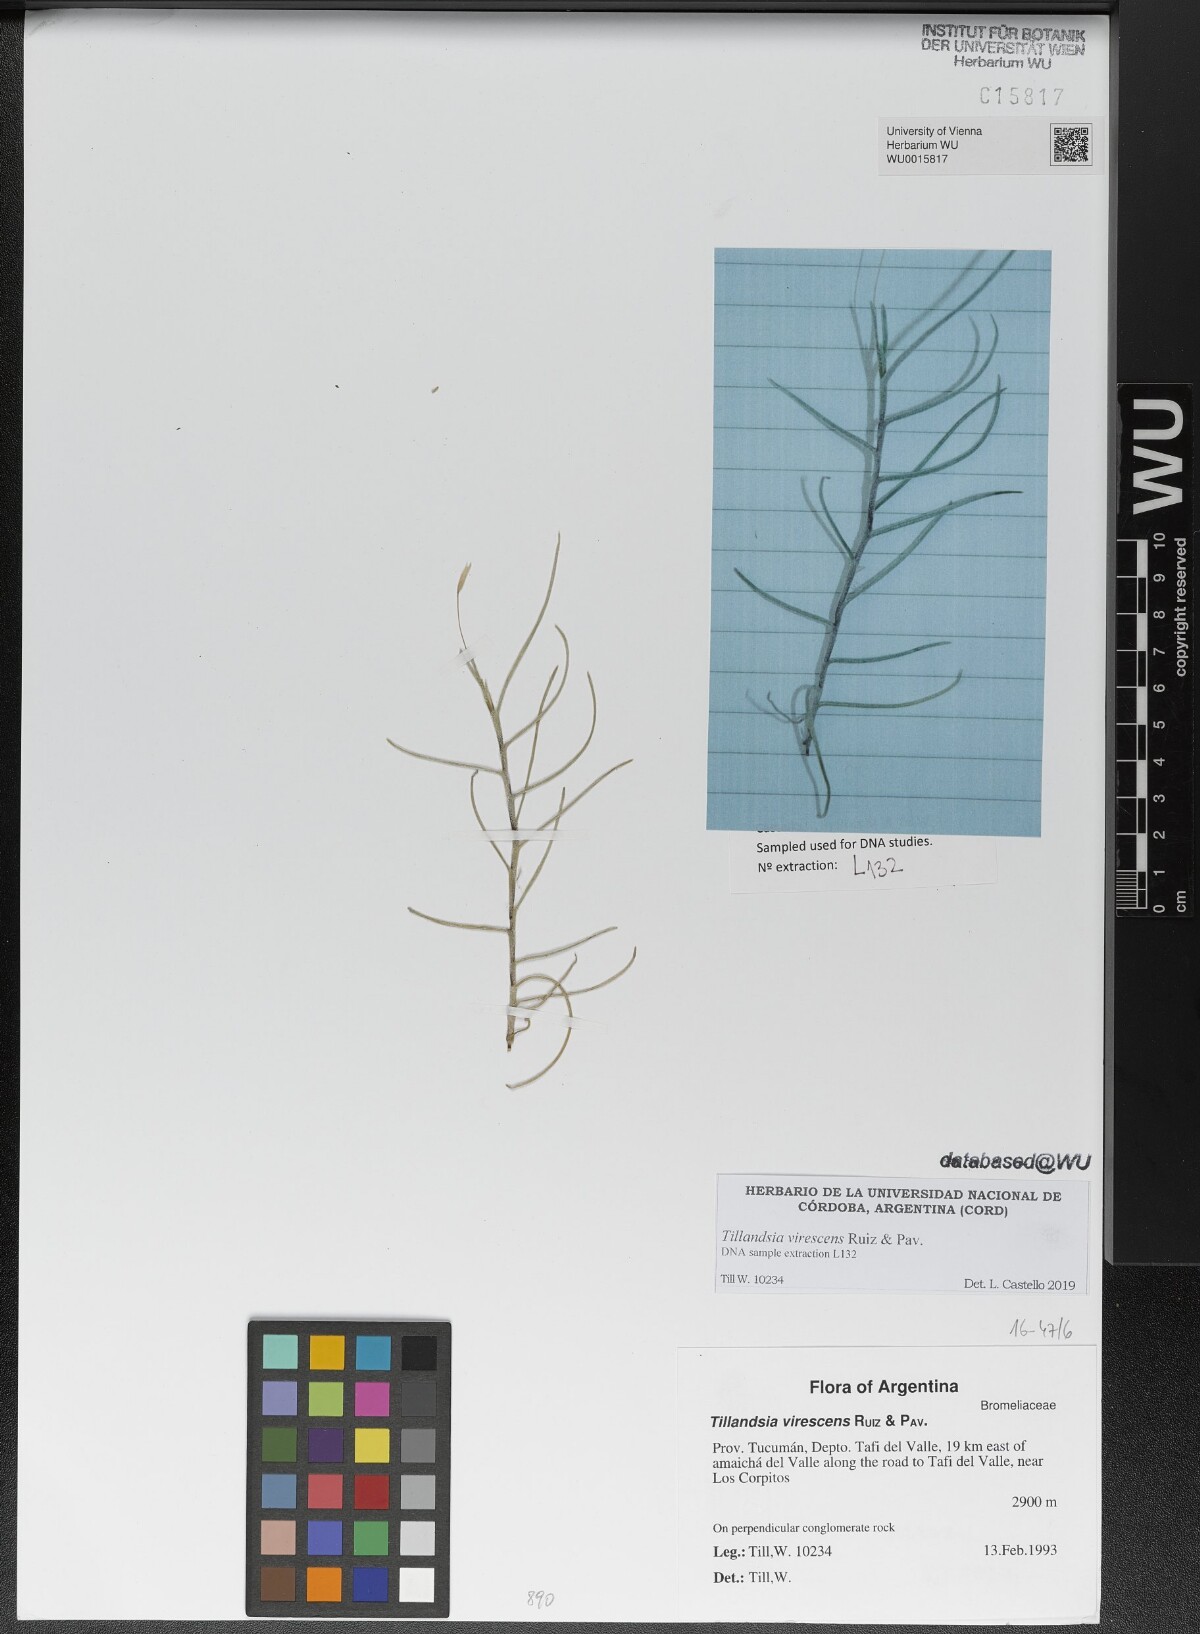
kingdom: Plantae
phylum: Tracheophyta
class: Liliopsida
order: Poales
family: Bromeliaceae
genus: Tillandsia
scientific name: Tillandsia virescens
